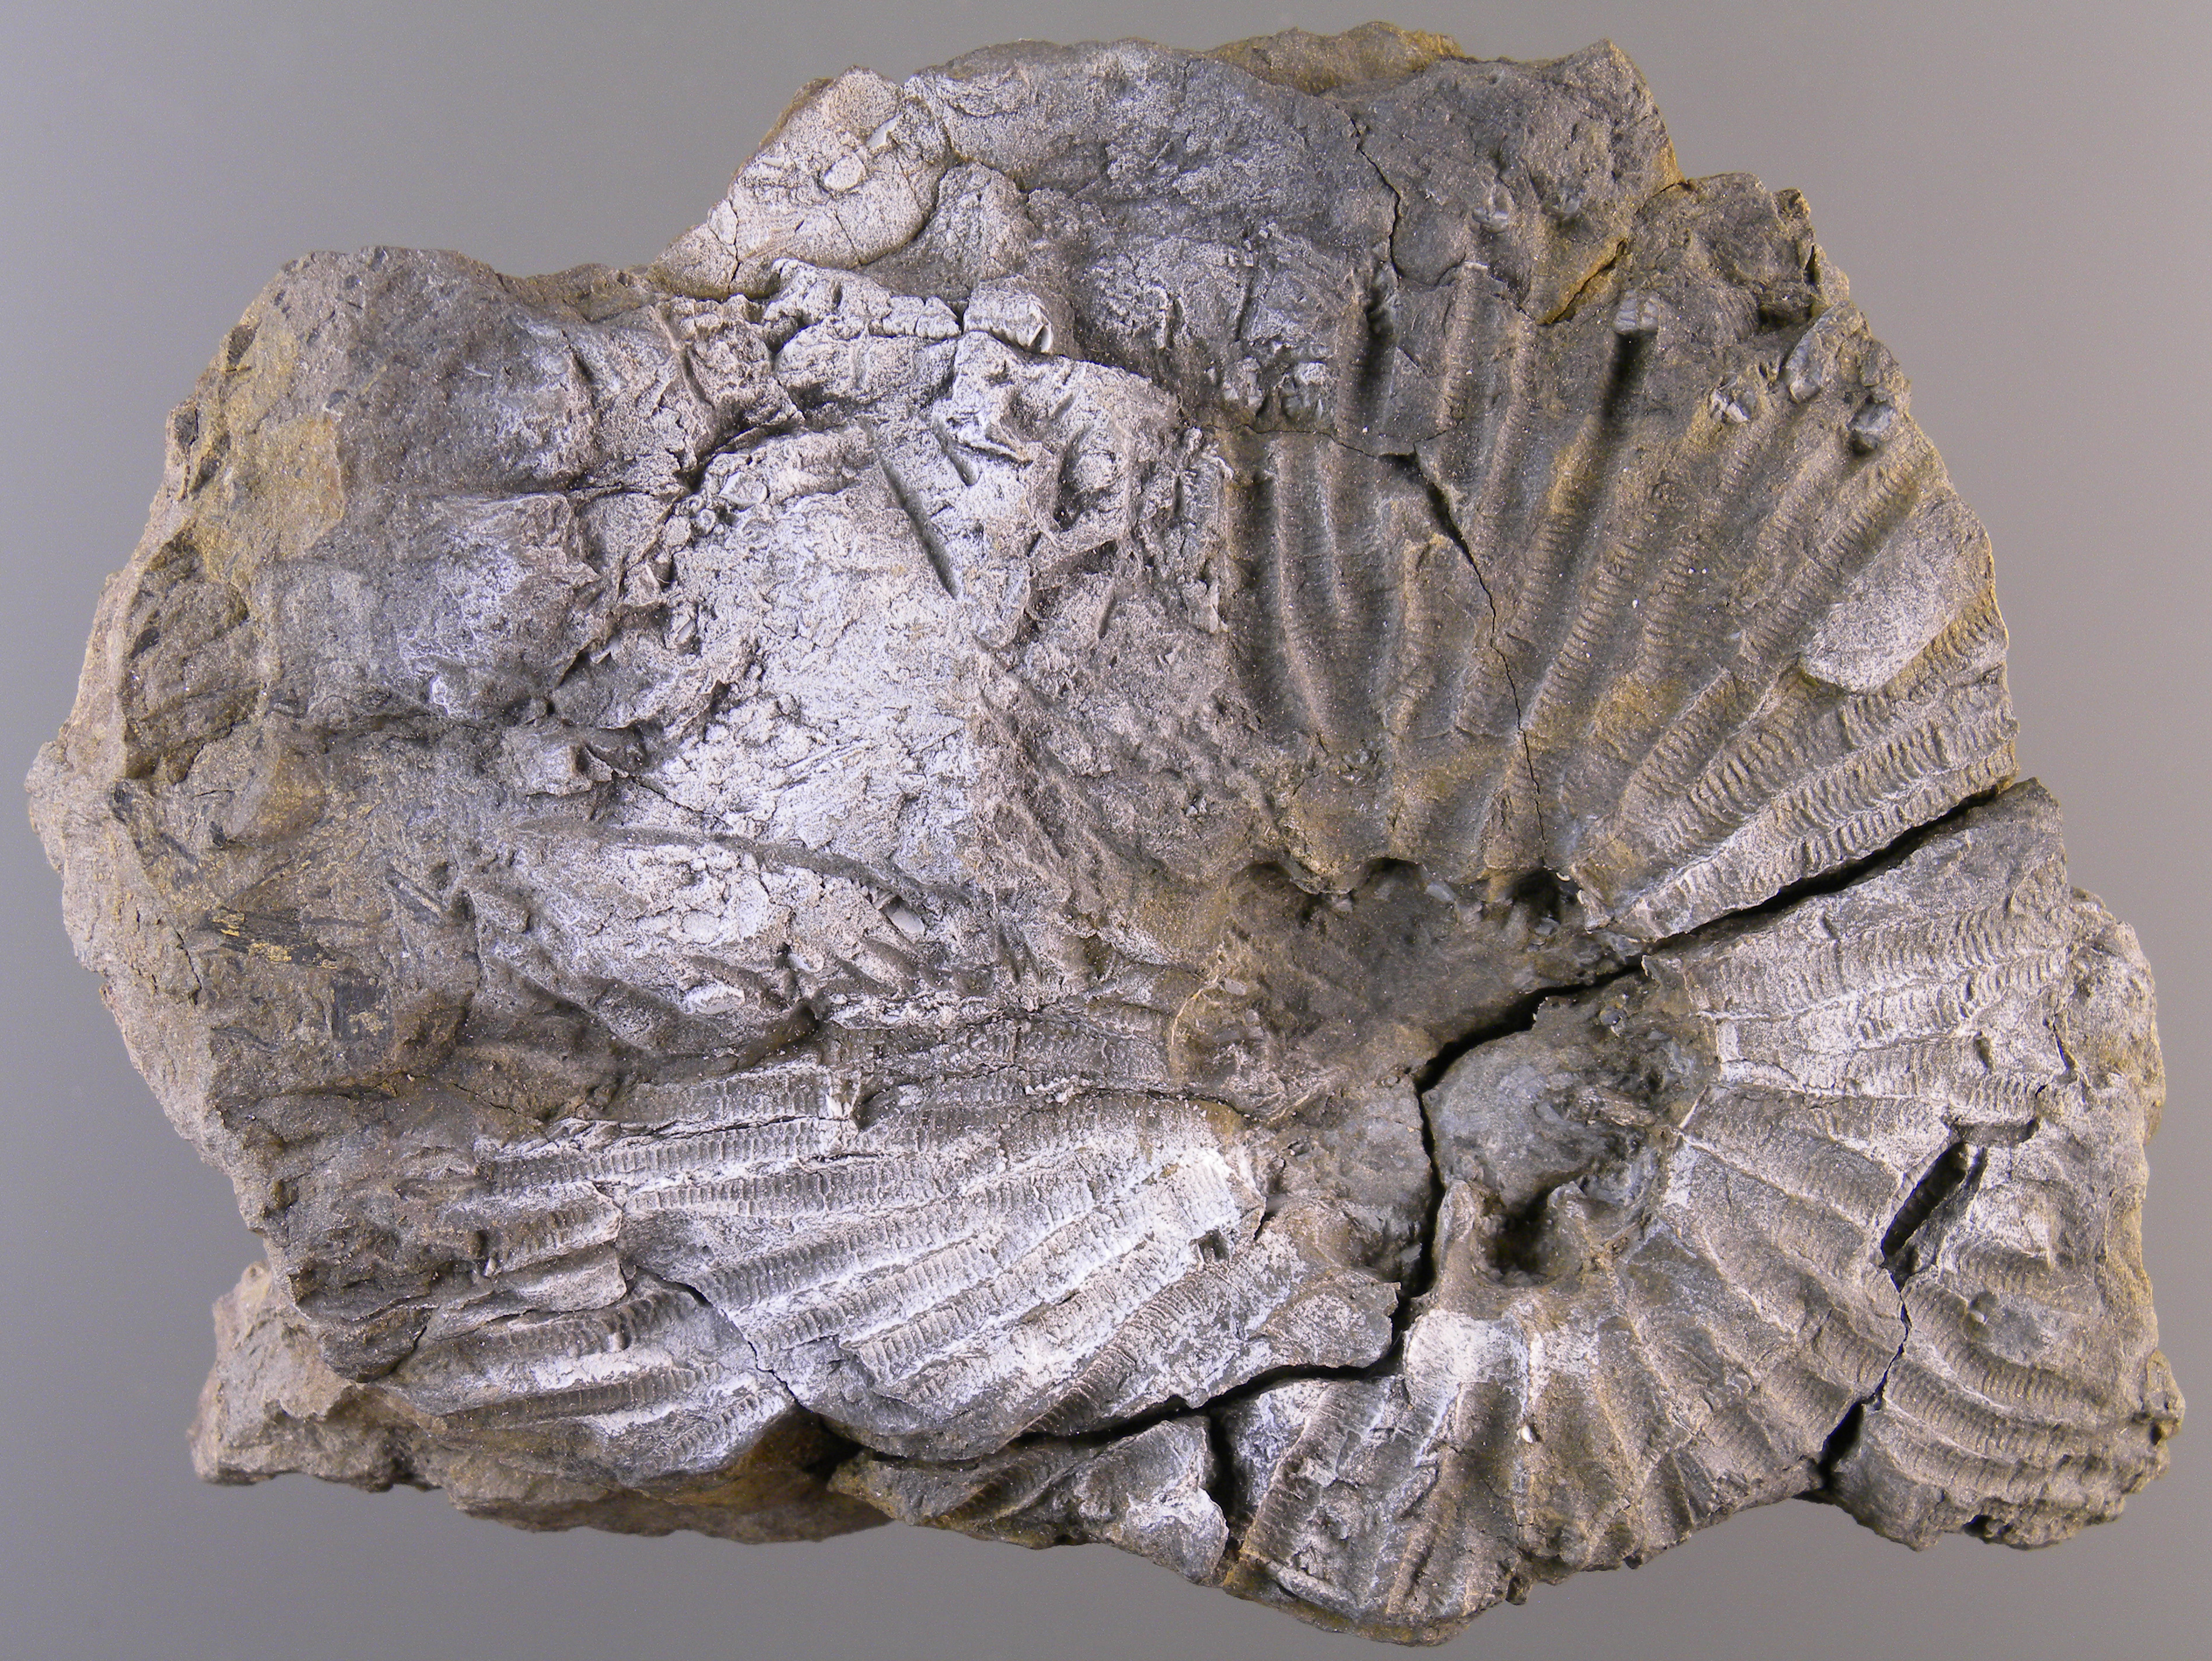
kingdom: Animalia
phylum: Echinodermata
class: Crinoidea
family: Rhodocrinitidae
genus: Acanthocrinus
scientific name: Acanthocrinus
